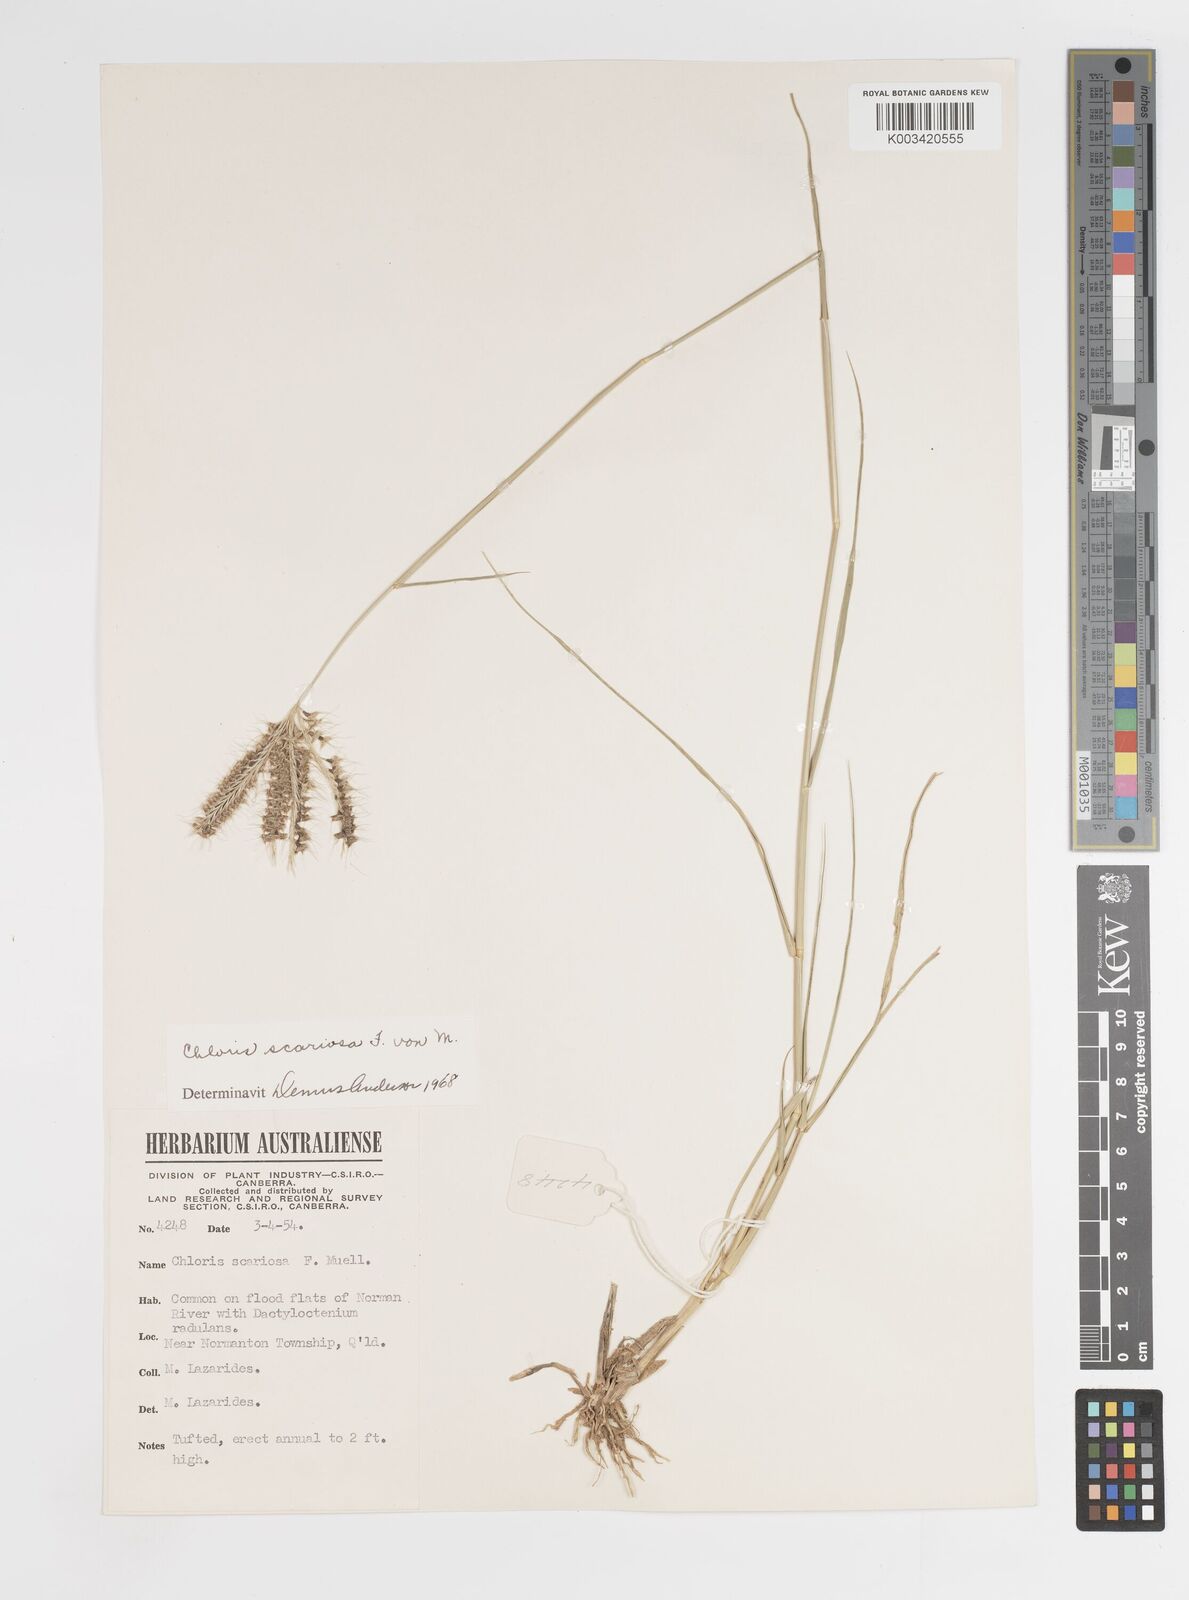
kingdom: Plantae
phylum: Tracheophyta
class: Liliopsida
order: Poales
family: Poaceae
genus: Oxychloris
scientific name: Oxychloris scariosa
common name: Winged windmill grass
